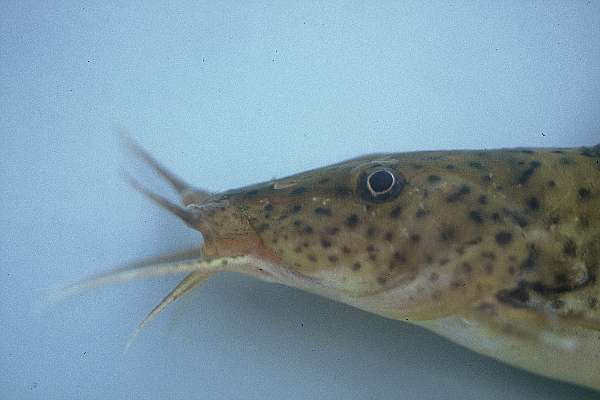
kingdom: Animalia
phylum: Chordata
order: Siluriformes
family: Claroteidae
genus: Parauchenoglanis
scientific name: Parauchenoglanis ngamensis
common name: Zambezi grunter
